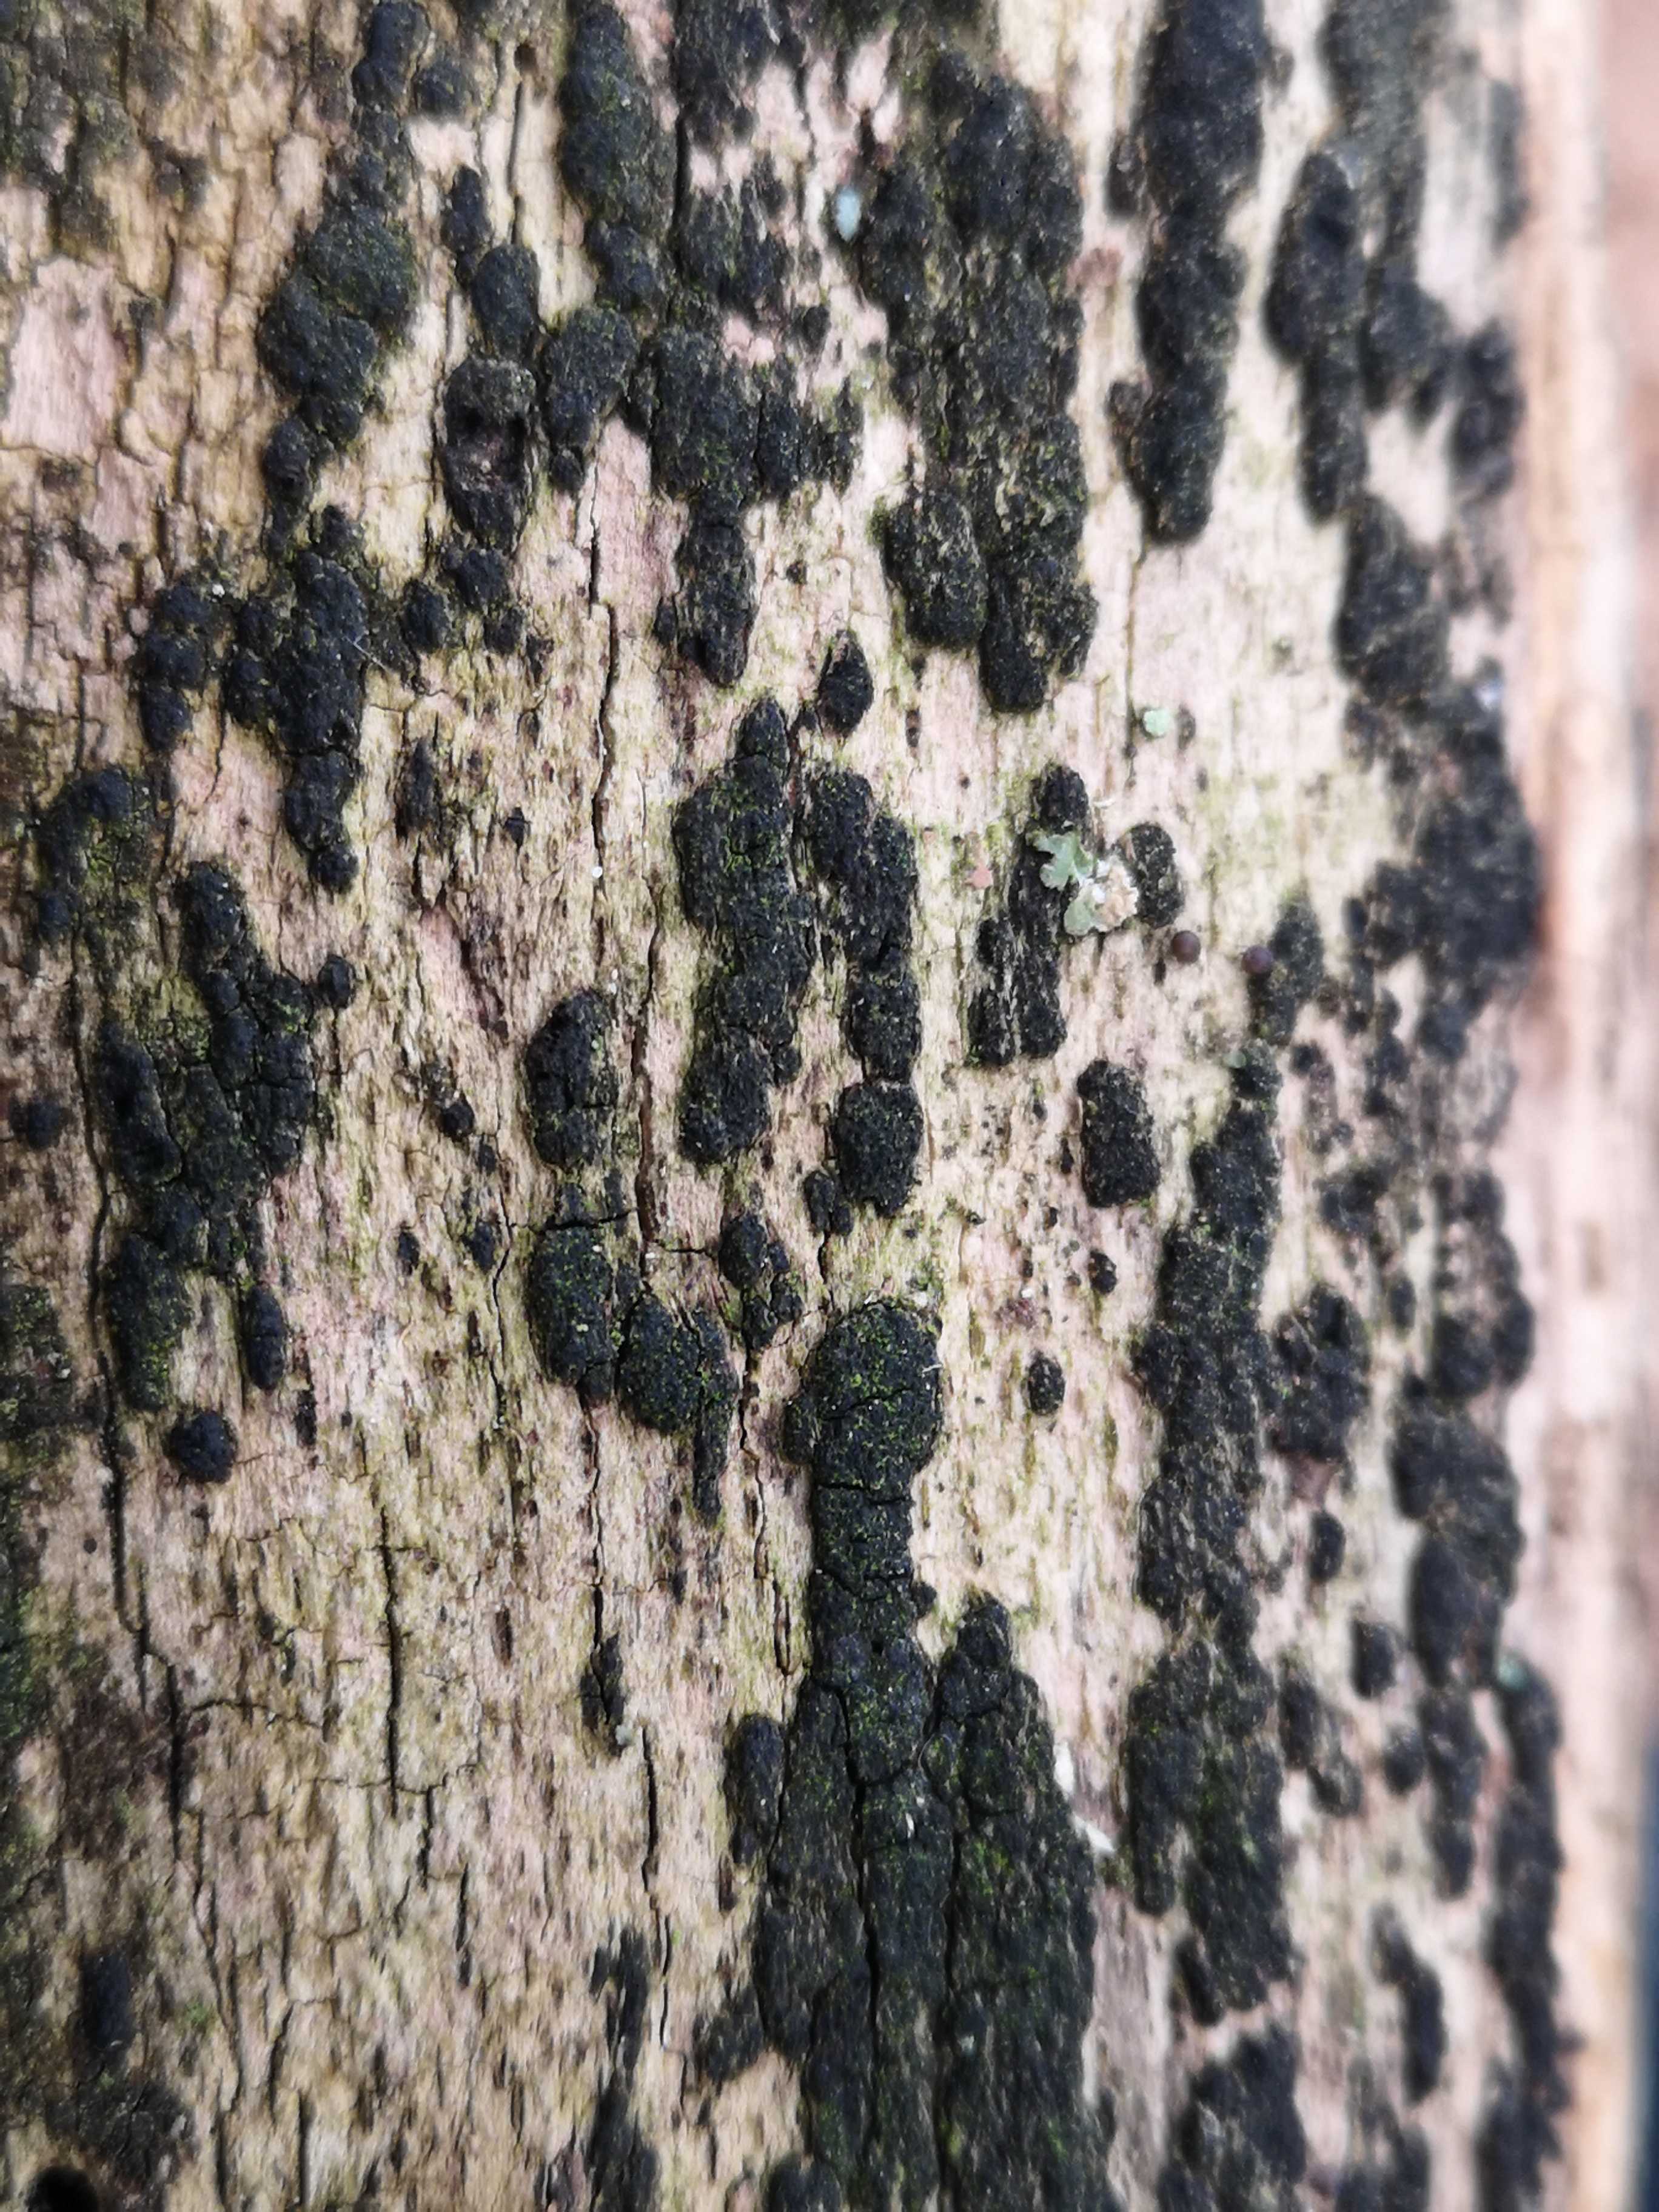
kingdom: Fungi
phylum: Ascomycota
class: Sordariomycetes
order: Xylariales
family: Diatrypaceae
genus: Eutypa
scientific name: Eutypa flavovirens
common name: grønkødet kulskorpe
